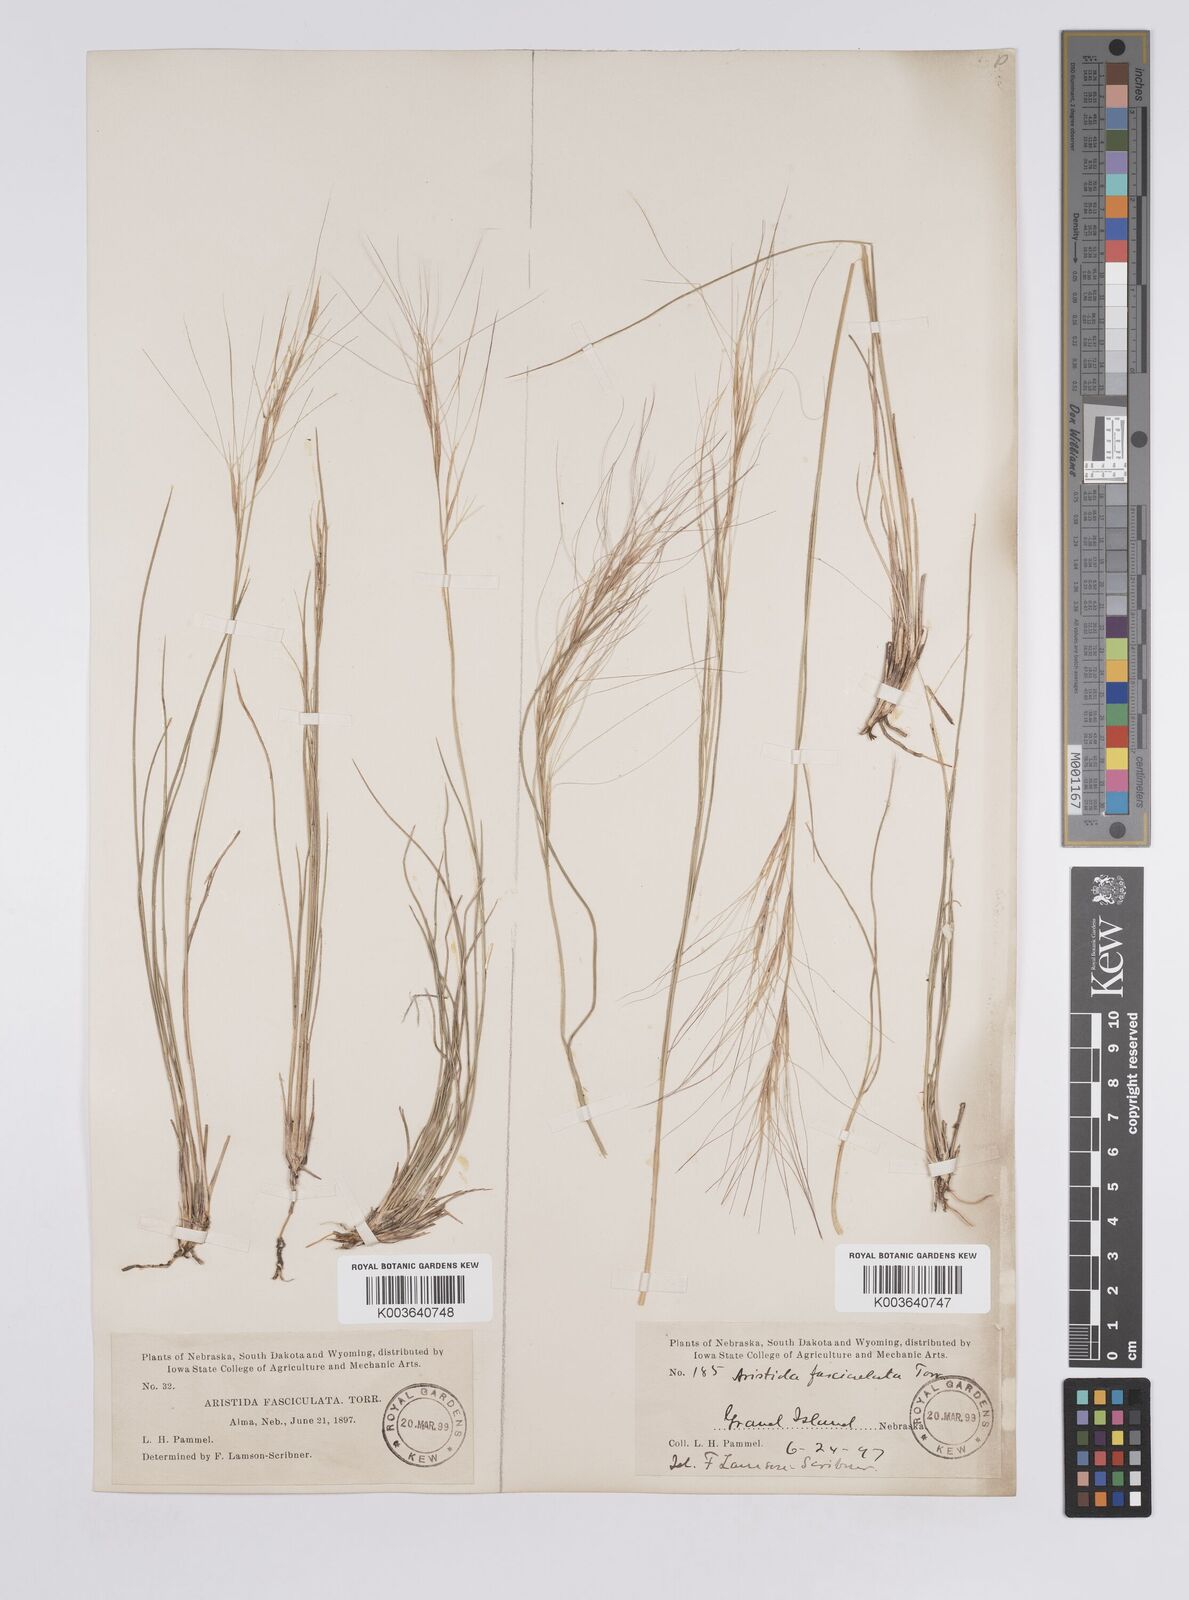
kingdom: Plantae
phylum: Tracheophyta
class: Liliopsida
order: Poales
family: Poaceae
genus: Aristida
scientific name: Aristida adscensionis
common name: Sixweeks threeawn
